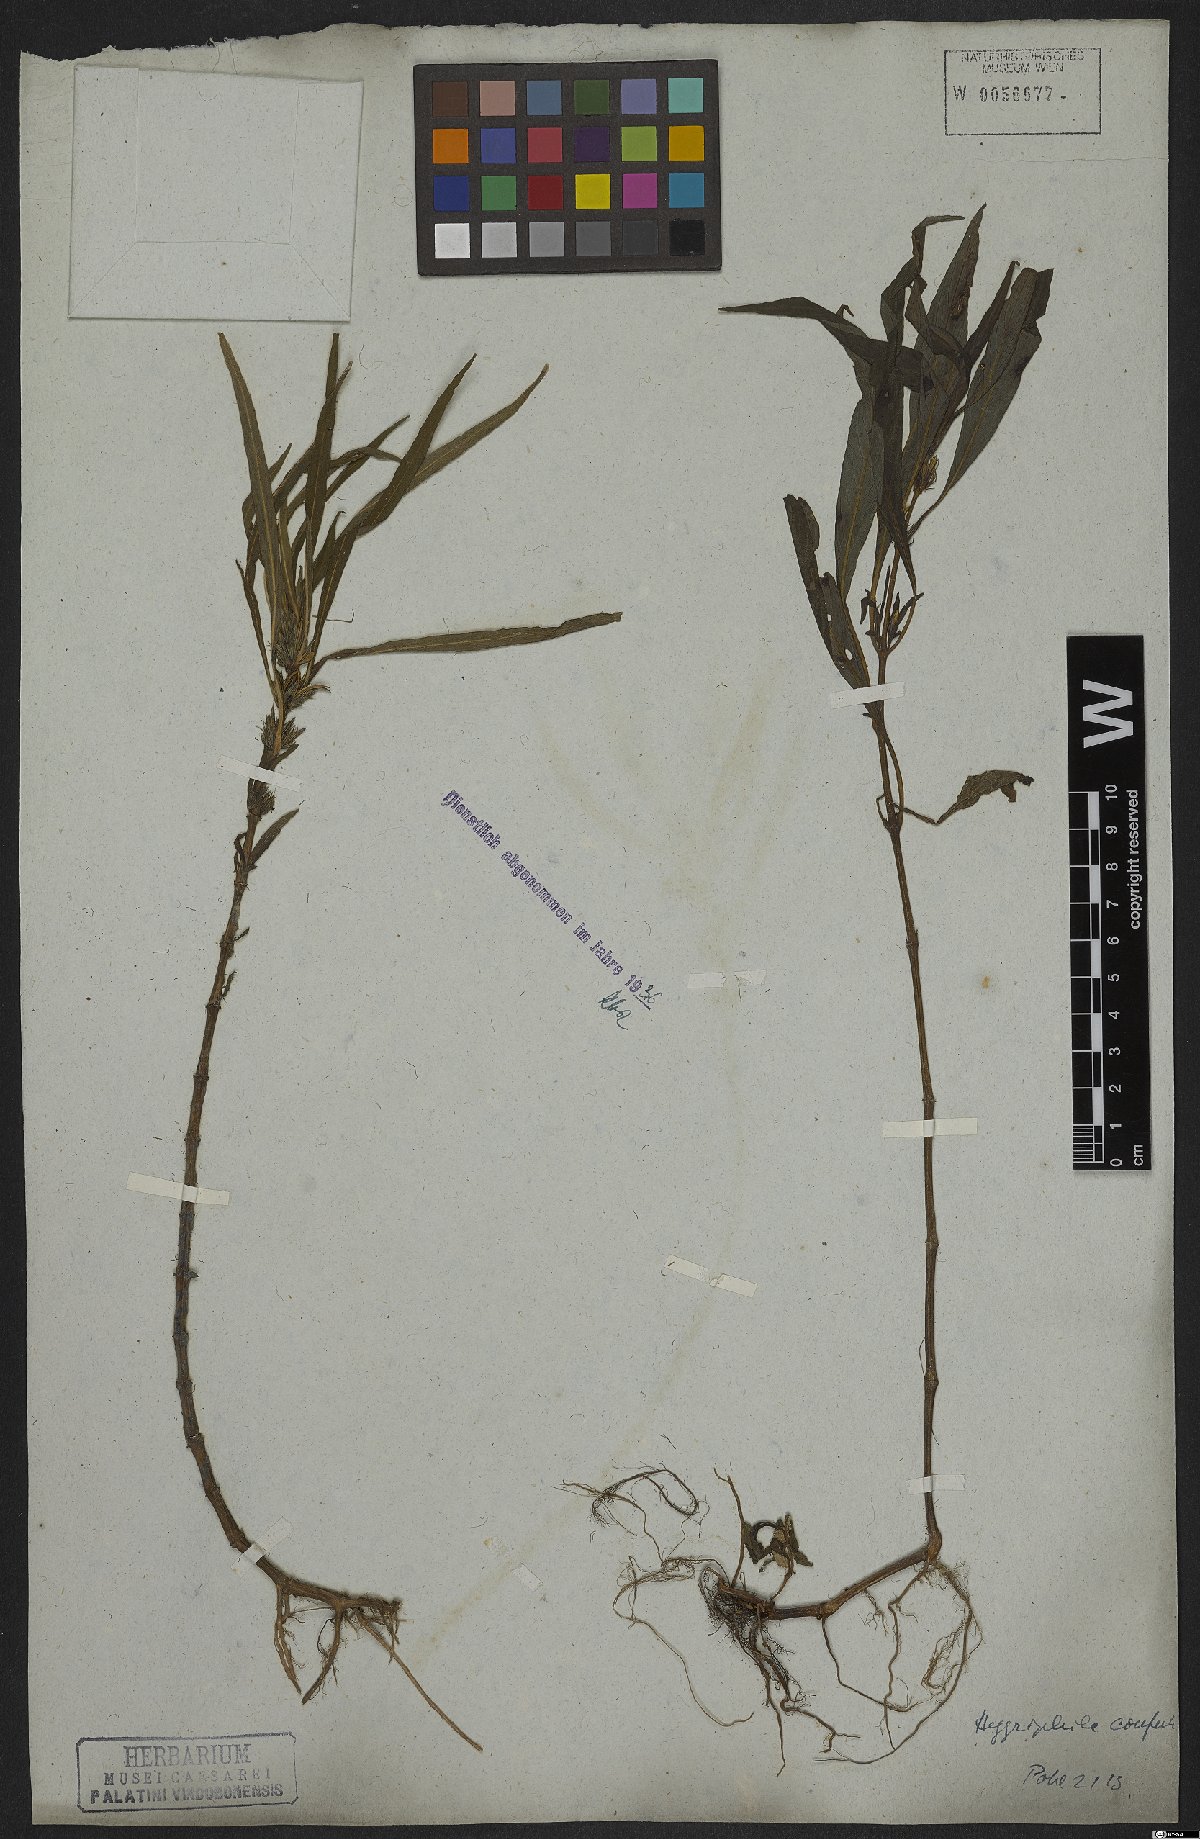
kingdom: Plantae
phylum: Tracheophyta
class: Magnoliopsida
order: Lamiales
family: Acanthaceae
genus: Hygrophila
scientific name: Hygrophila costata
